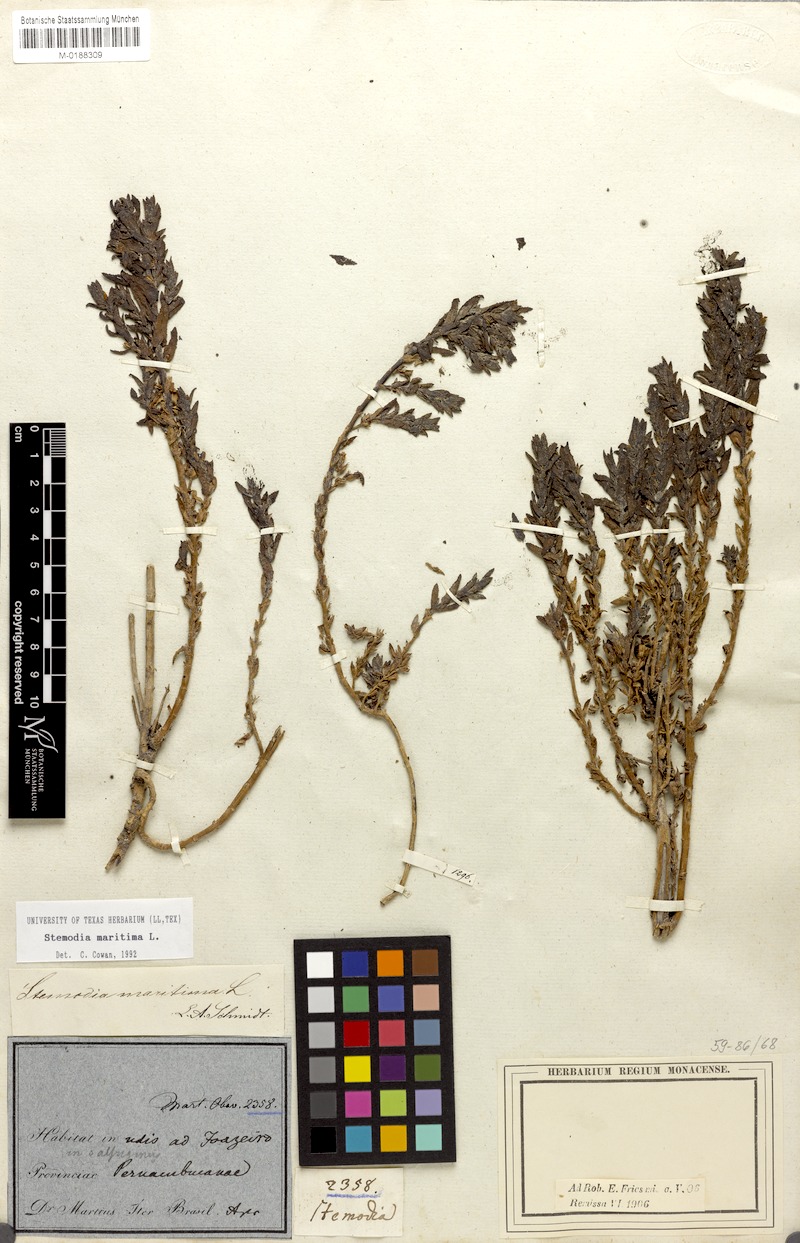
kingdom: Plantae
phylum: Tracheophyta
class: Magnoliopsida
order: Lamiales
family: Plantaginaceae
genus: Stemodia
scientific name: Stemodia maritima
